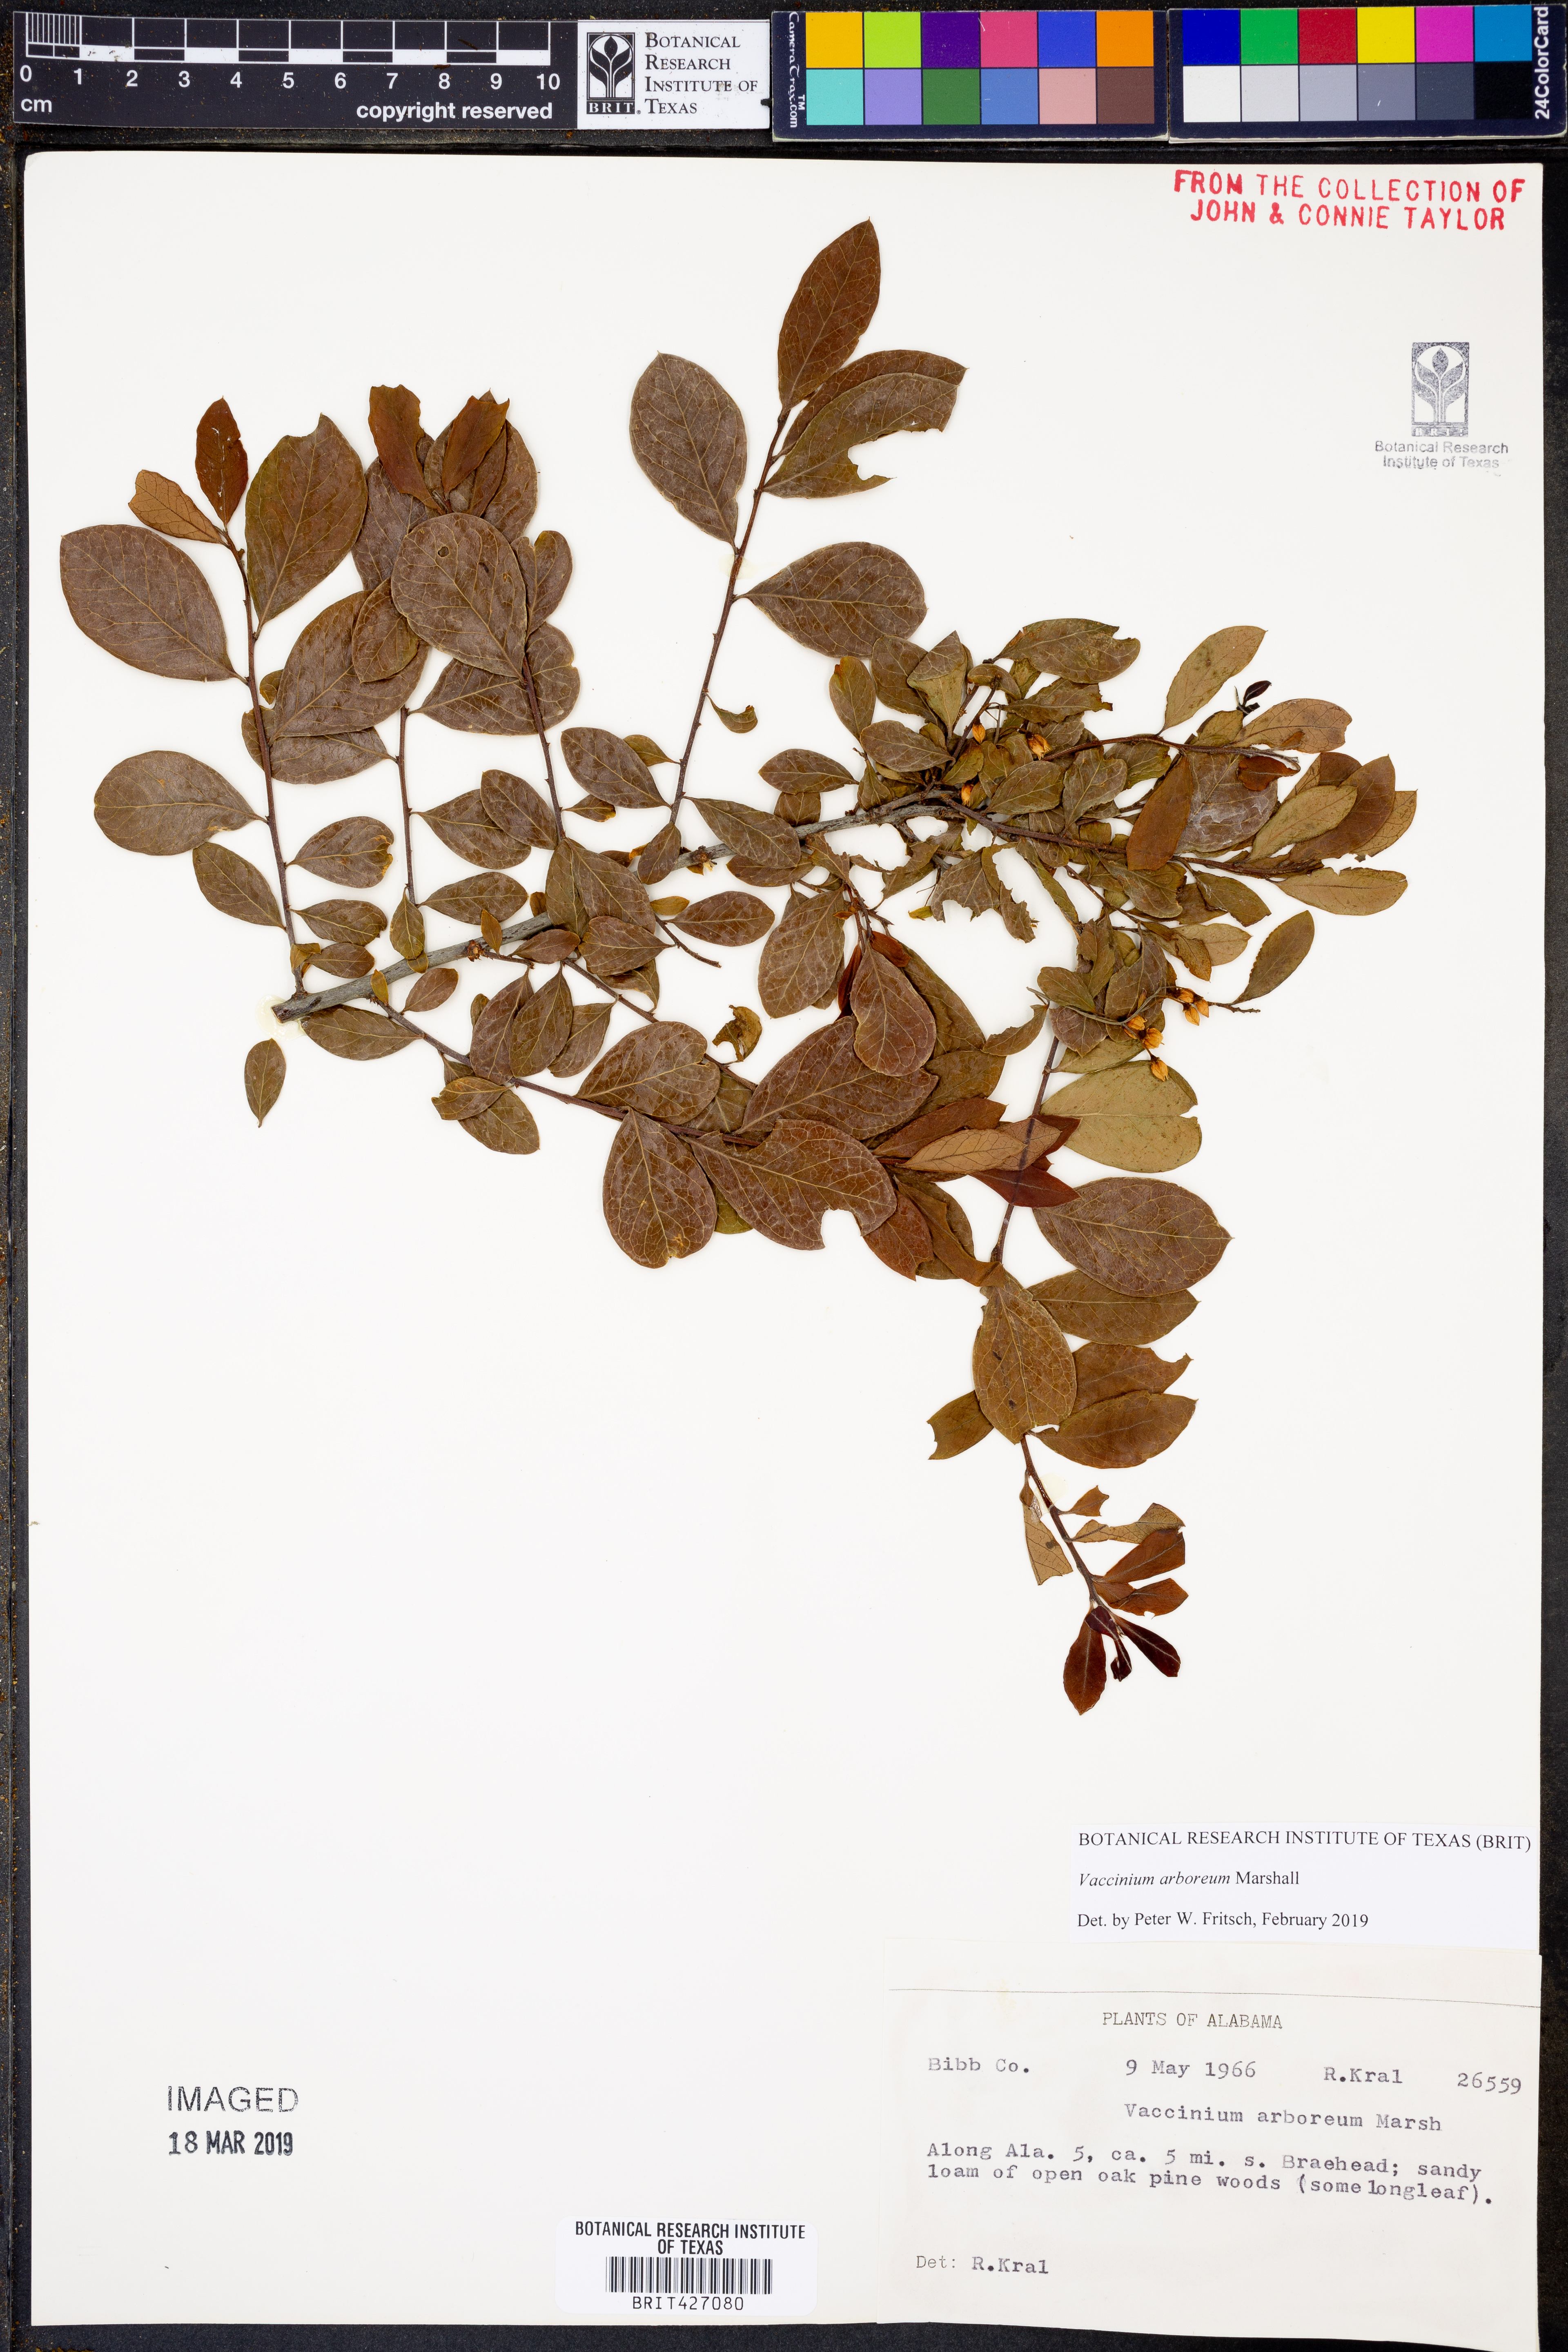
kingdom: Plantae
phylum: Tracheophyta
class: Magnoliopsida
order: Ericales
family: Ericaceae
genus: Vaccinium
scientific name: Vaccinium arboreum
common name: Farkleberry
